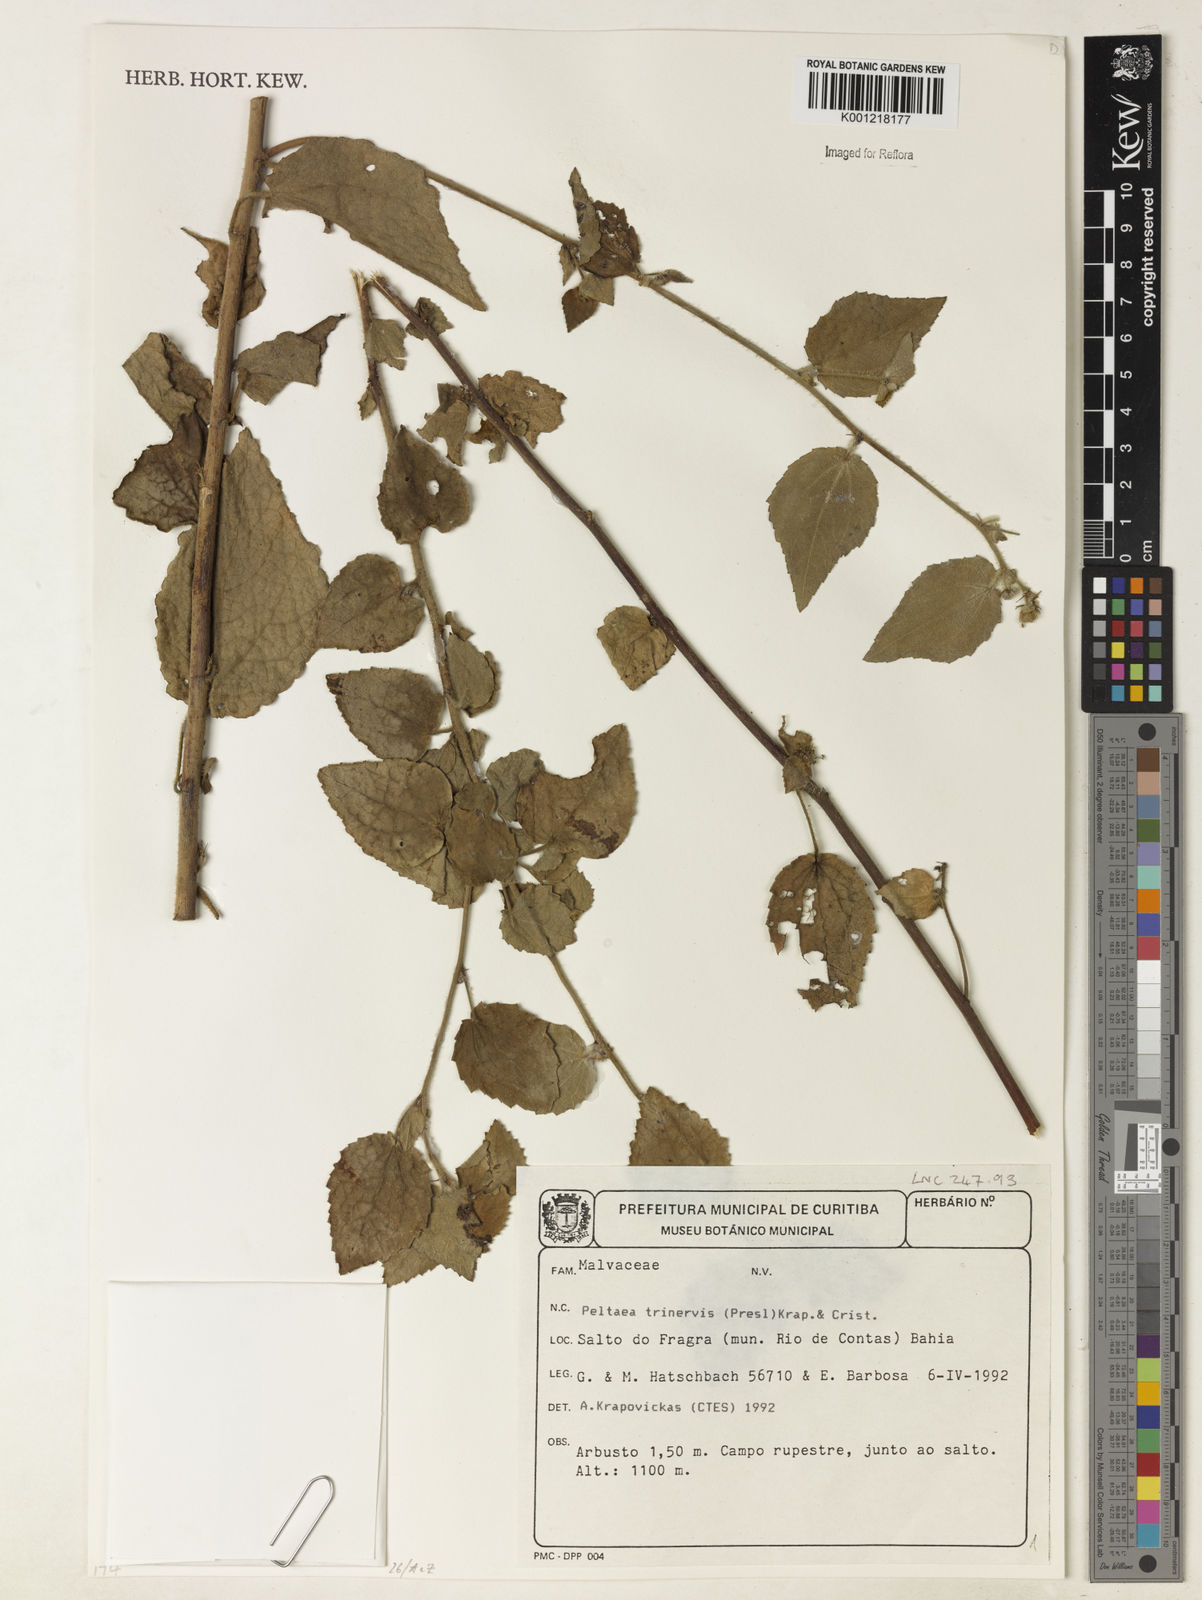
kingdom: Plantae
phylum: Tracheophyta
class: Magnoliopsida
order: Malvales
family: Malvaceae
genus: Peltaea
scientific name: Peltaea
